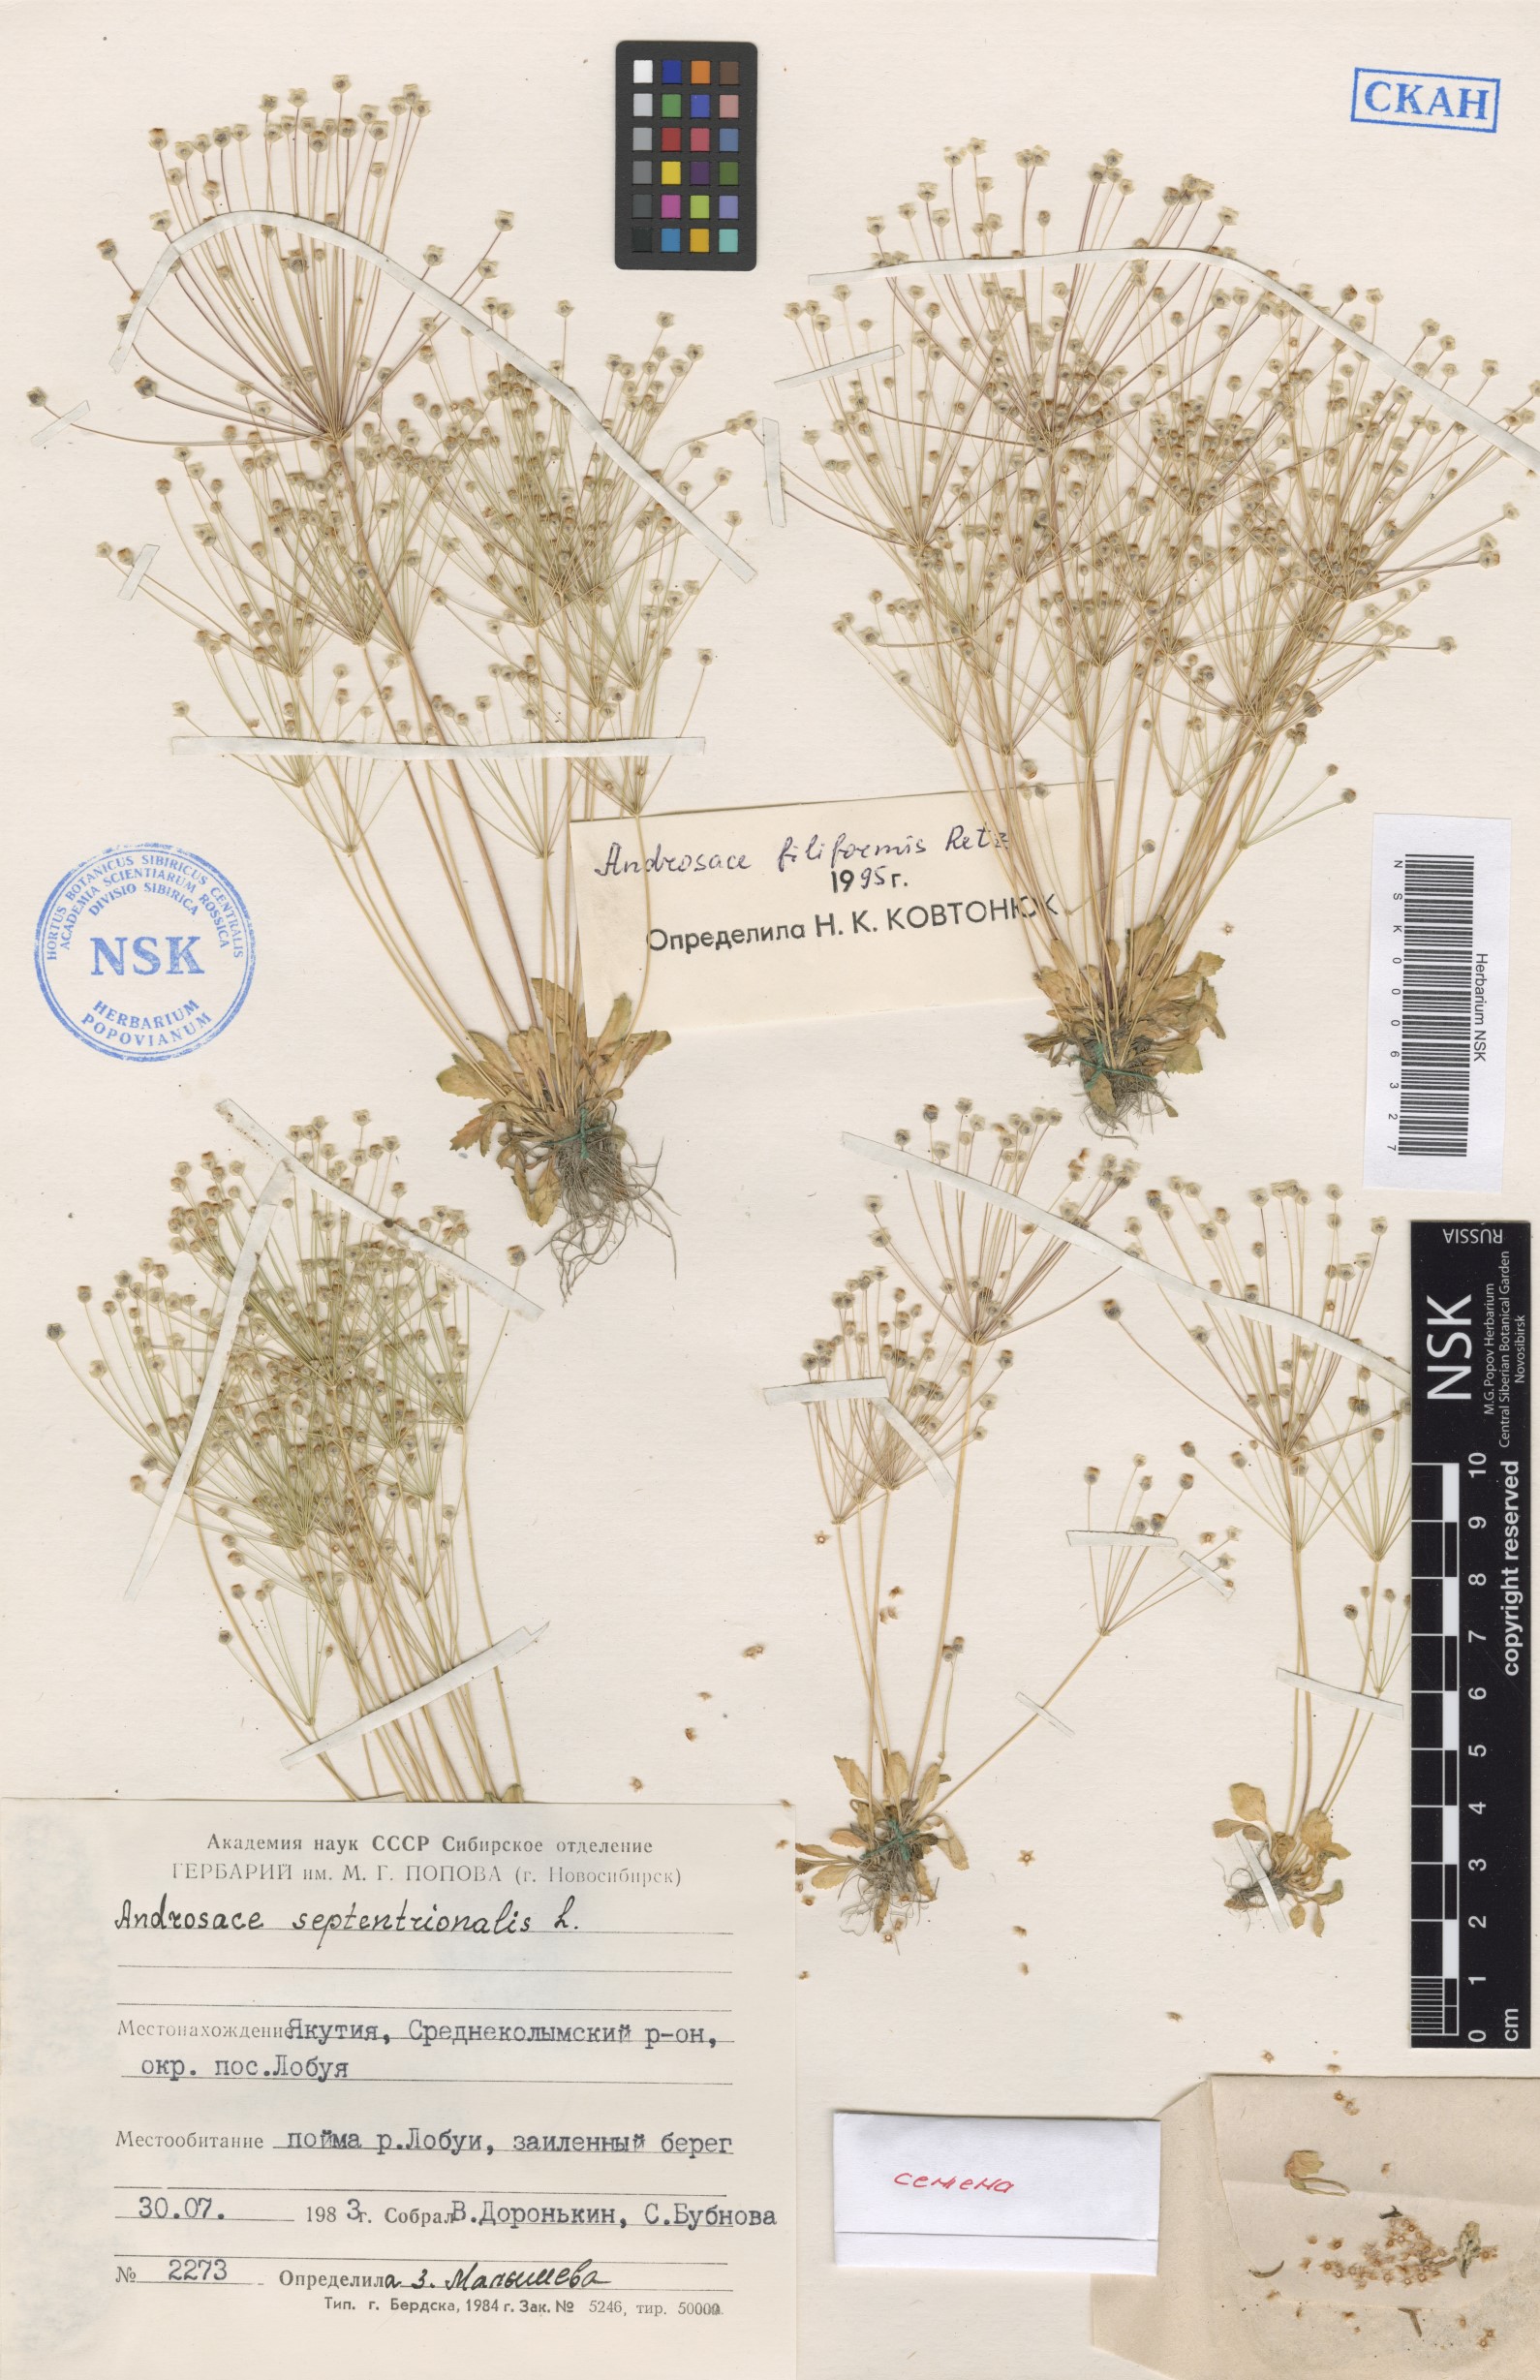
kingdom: Plantae
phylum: Tracheophyta
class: Magnoliopsida
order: Ericales
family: Primulaceae
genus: Androsace
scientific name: Androsace filiformis
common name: Filiform rock jasmine
